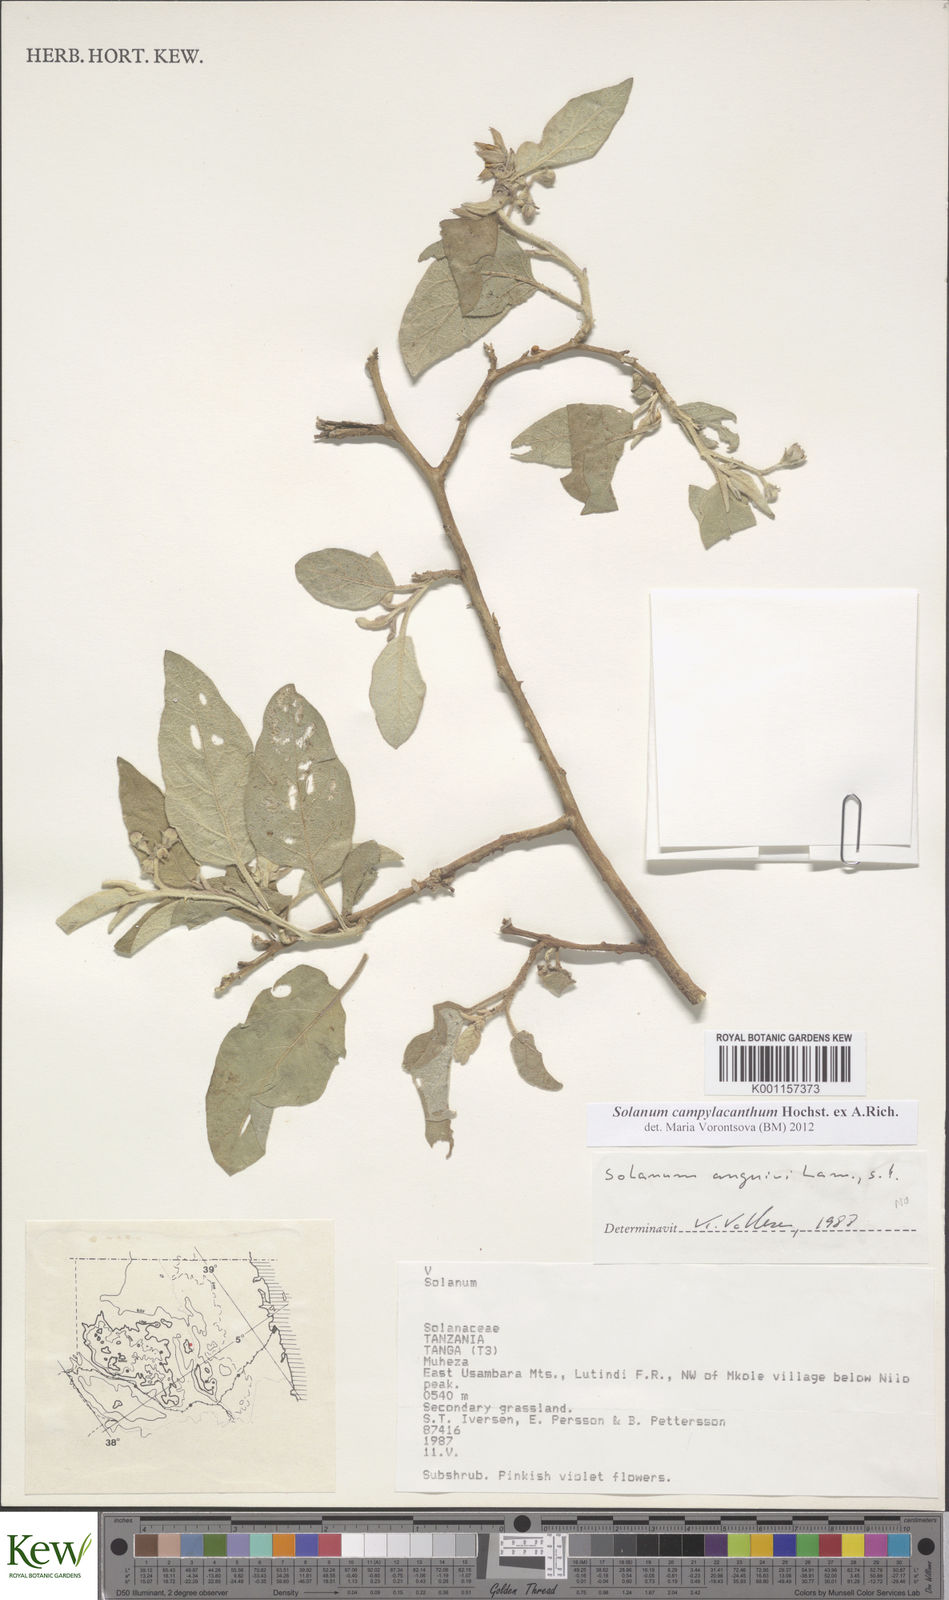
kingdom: Plantae
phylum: Tracheophyta
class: Magnoliopsida
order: Solanales
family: Solanaceae
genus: Solanum
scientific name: Solanum campylacanthum
